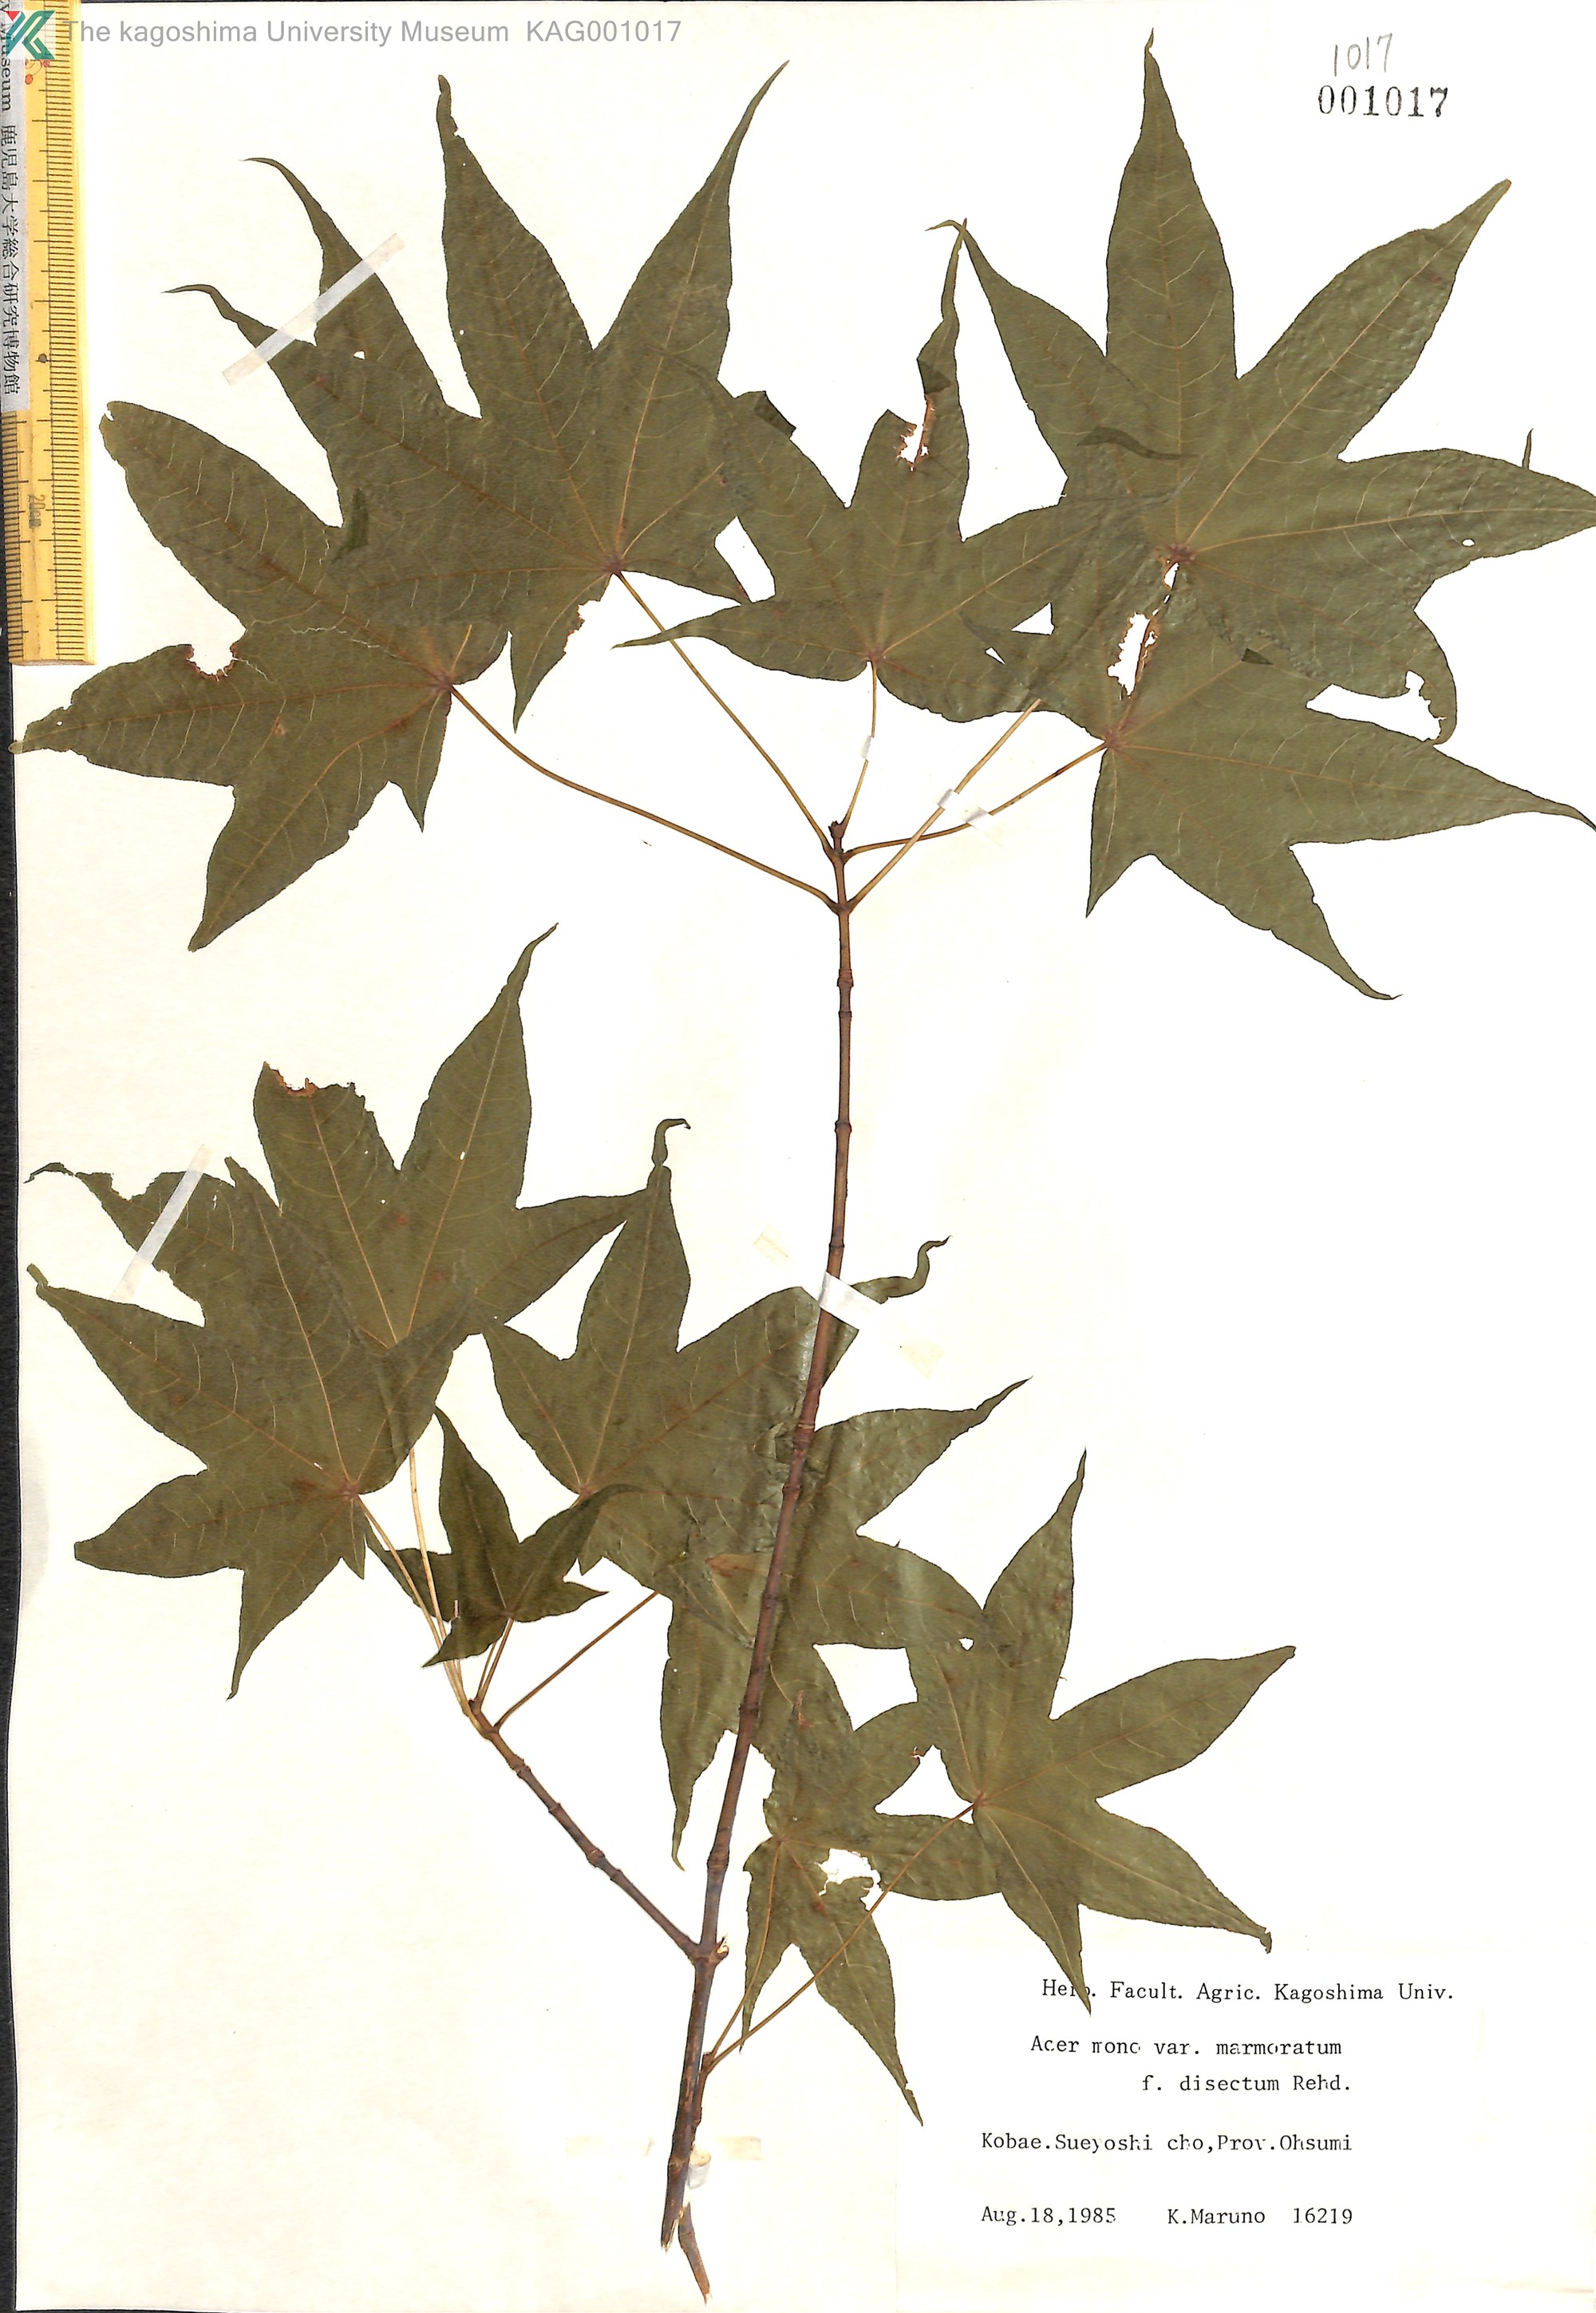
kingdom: Plantae
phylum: Tracheophyta
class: Magnoliopsida
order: Sapindales
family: Sapindaceae
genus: Acer
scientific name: Acer pictum
